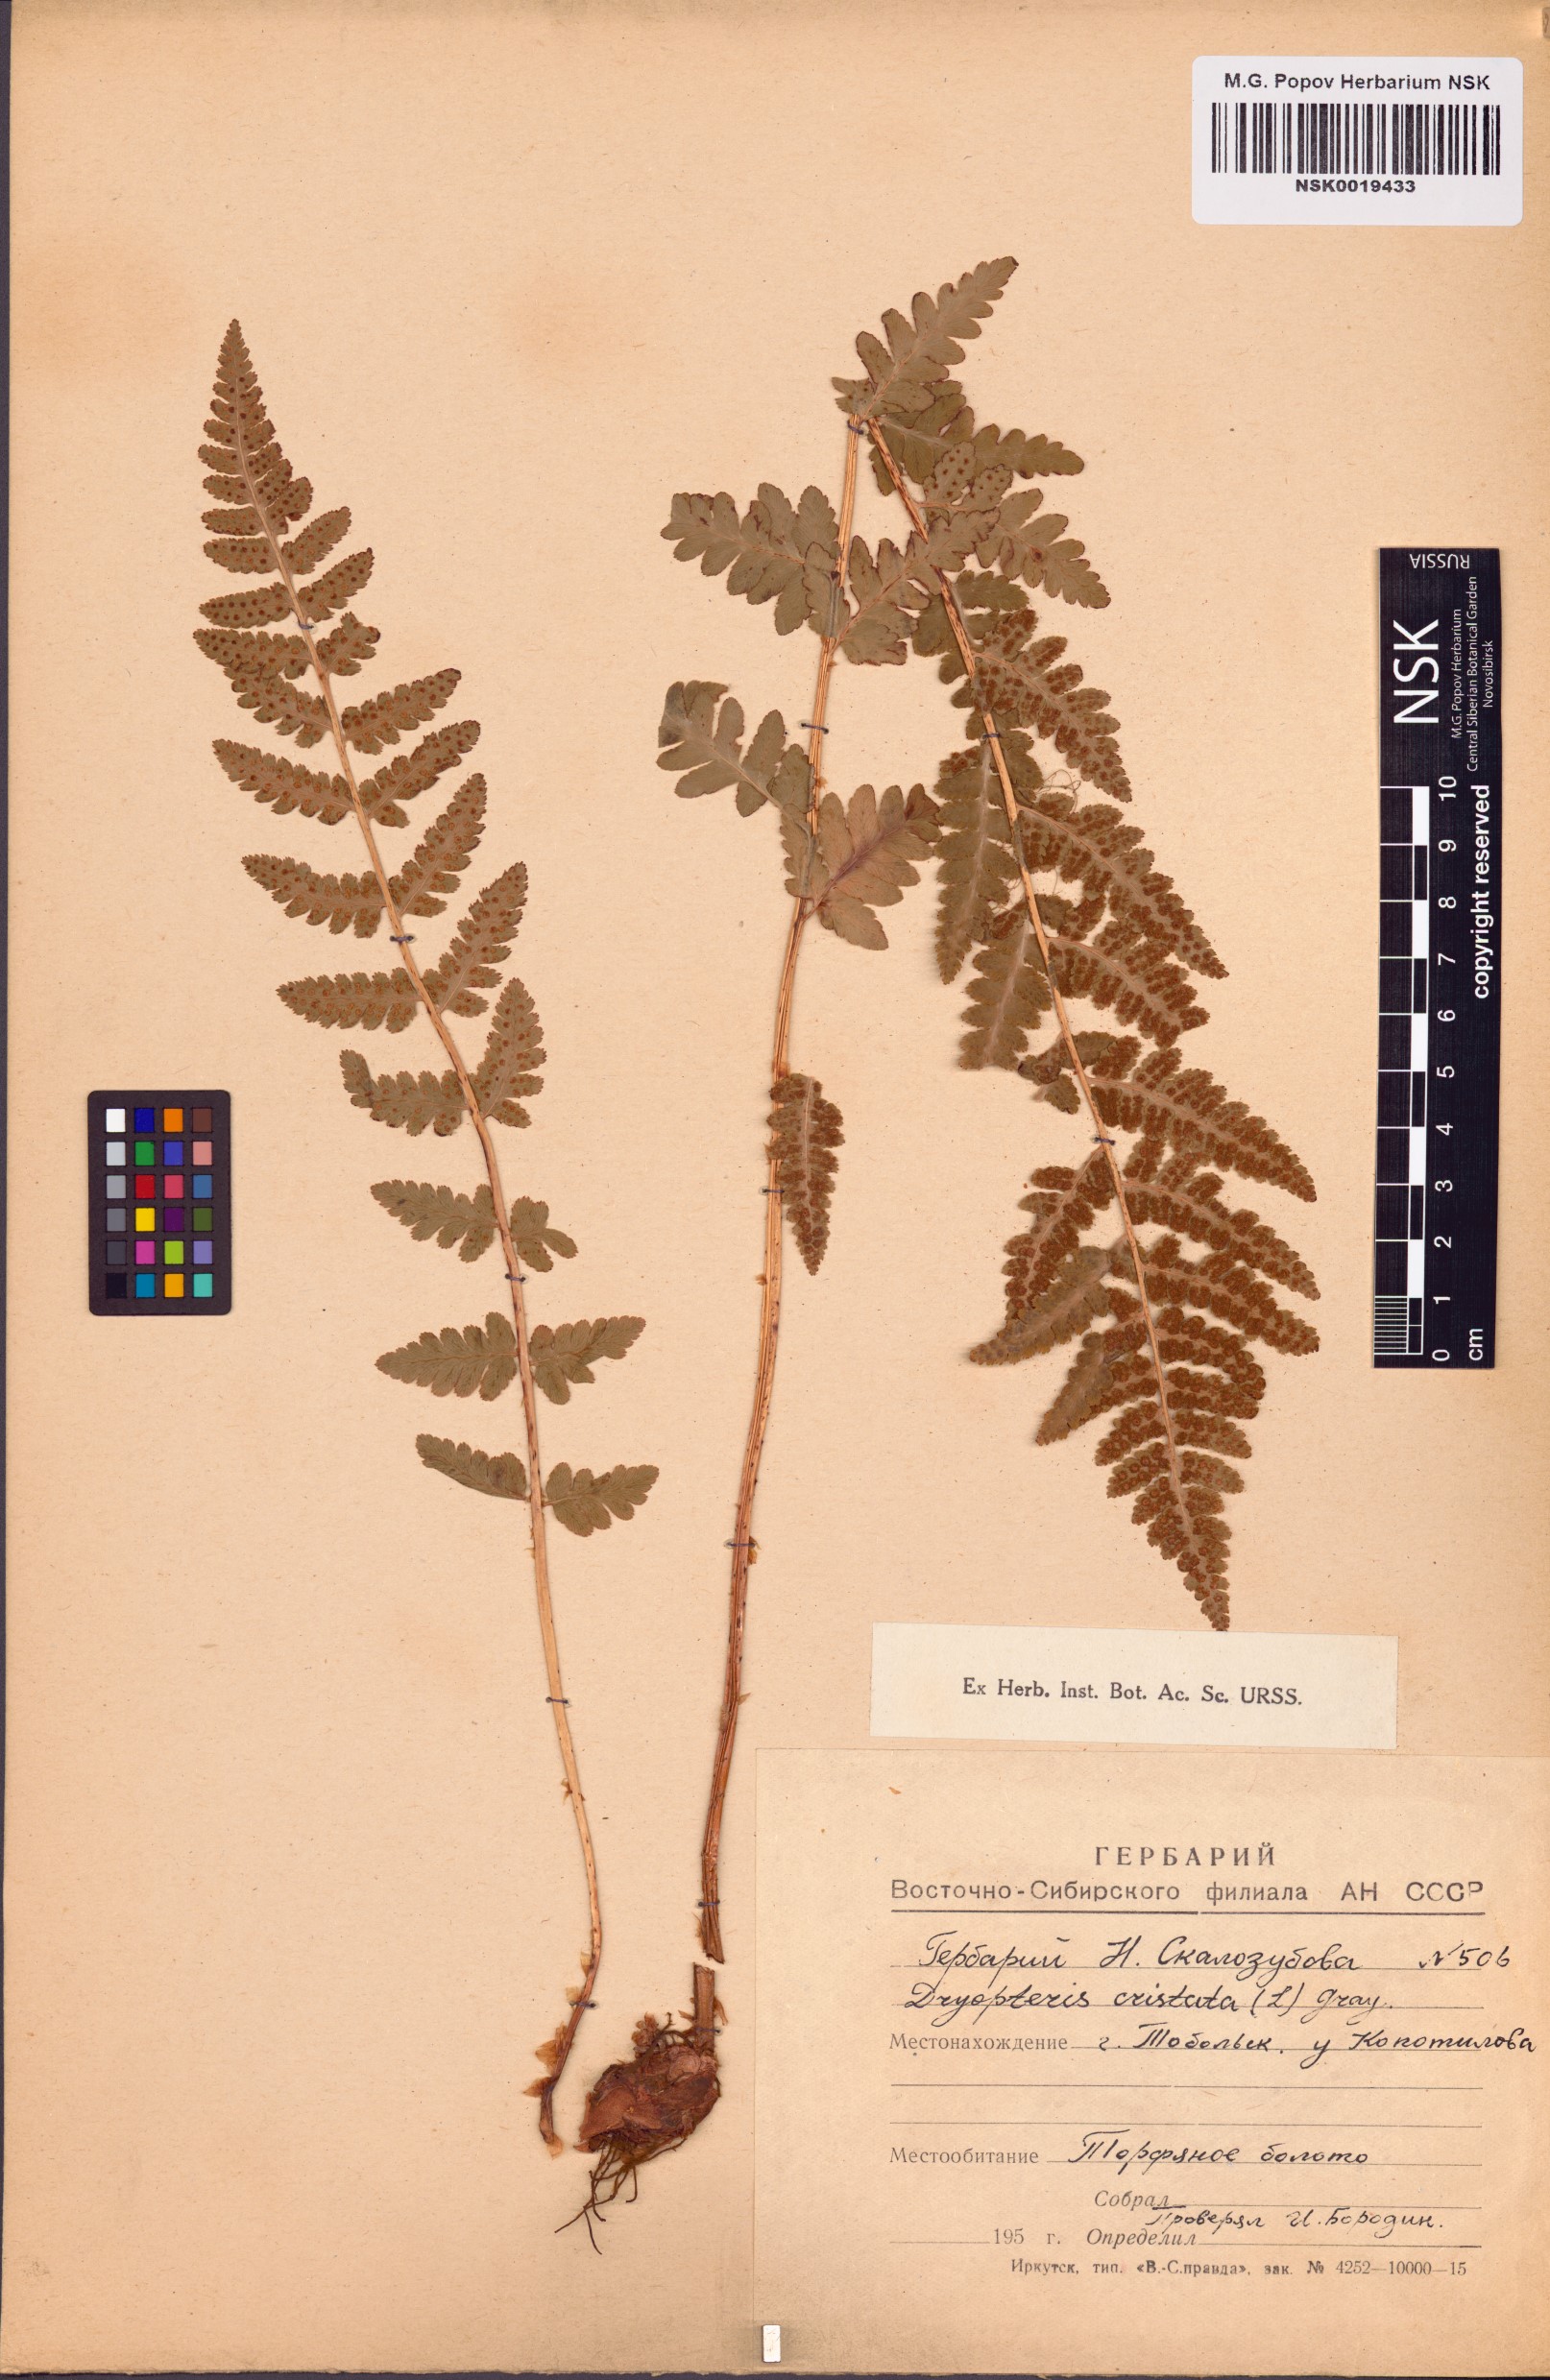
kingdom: Plantae
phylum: Tracheophyta
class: Polypodiopsida
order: Polypodiales
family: Dryopteridaceae
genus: Dryopteris
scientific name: Dryopteris cristata
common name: Crested wood fern
